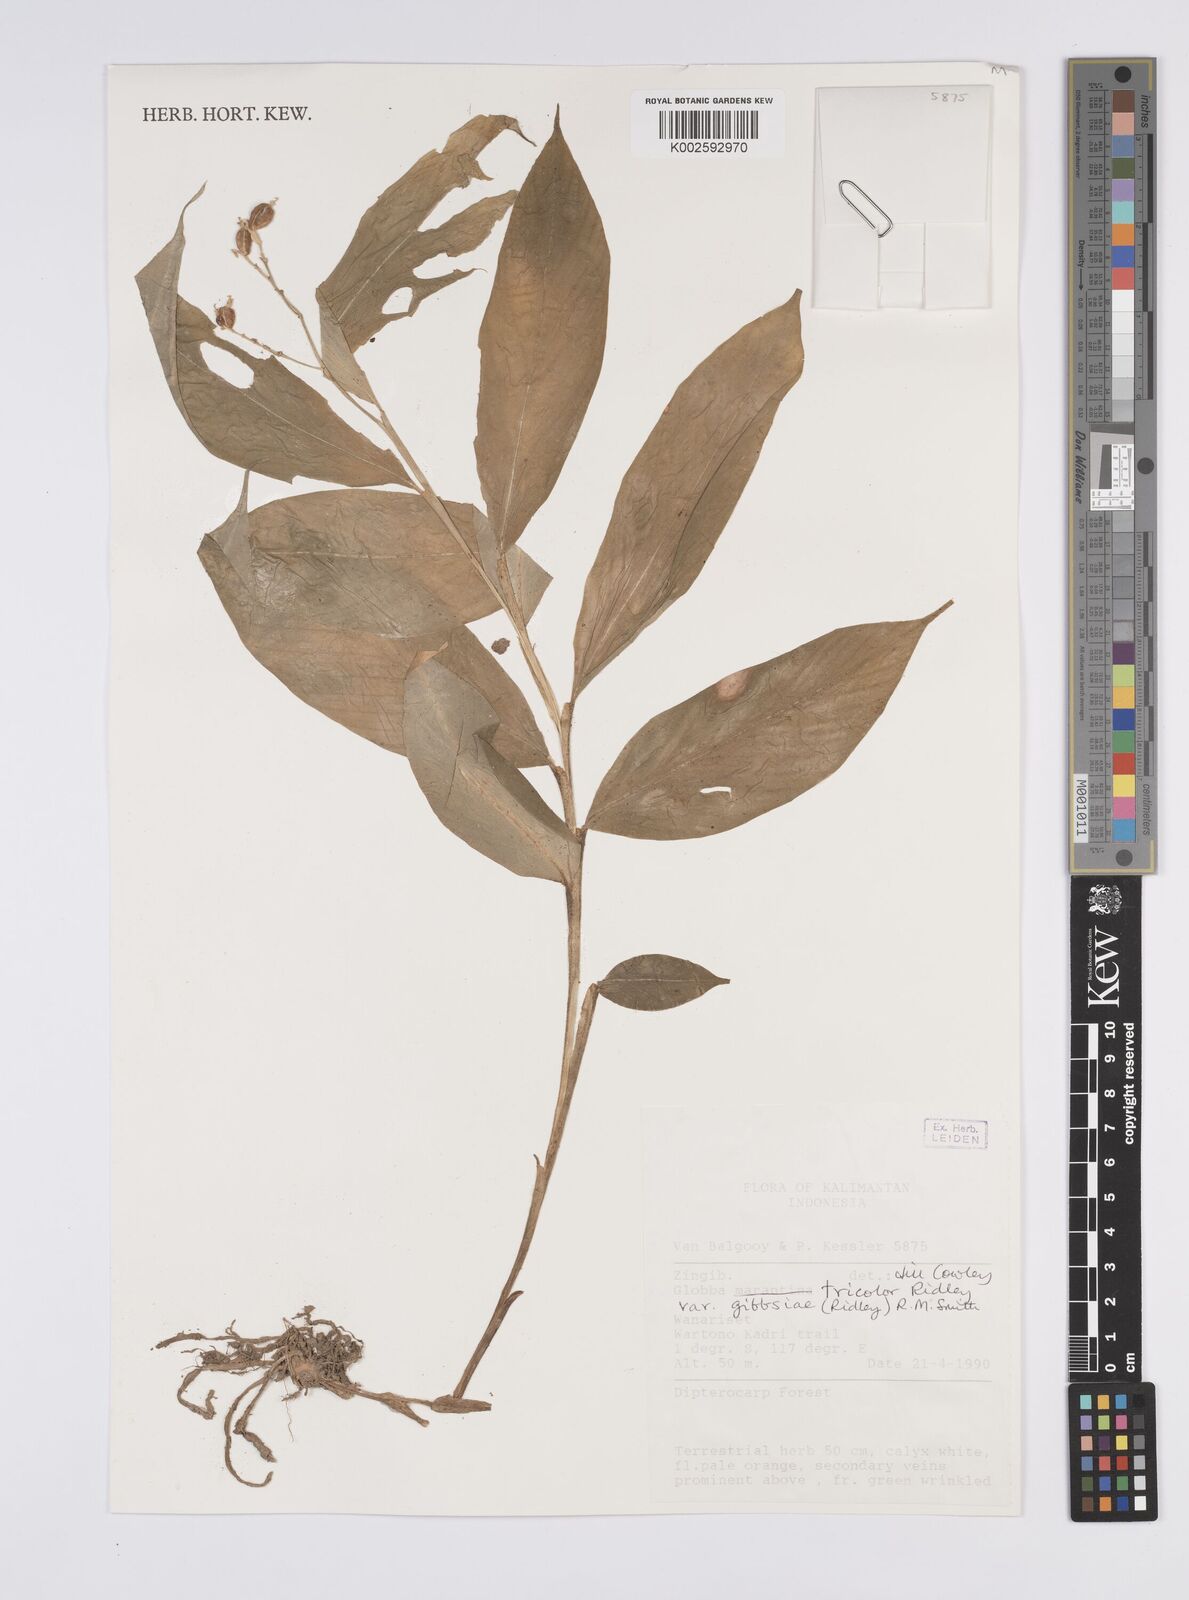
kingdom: Plantae
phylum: Tracheophyta
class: Liliopsida
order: Zingiberales
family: Zingiberaceae
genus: Globba
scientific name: Globba tricolor
